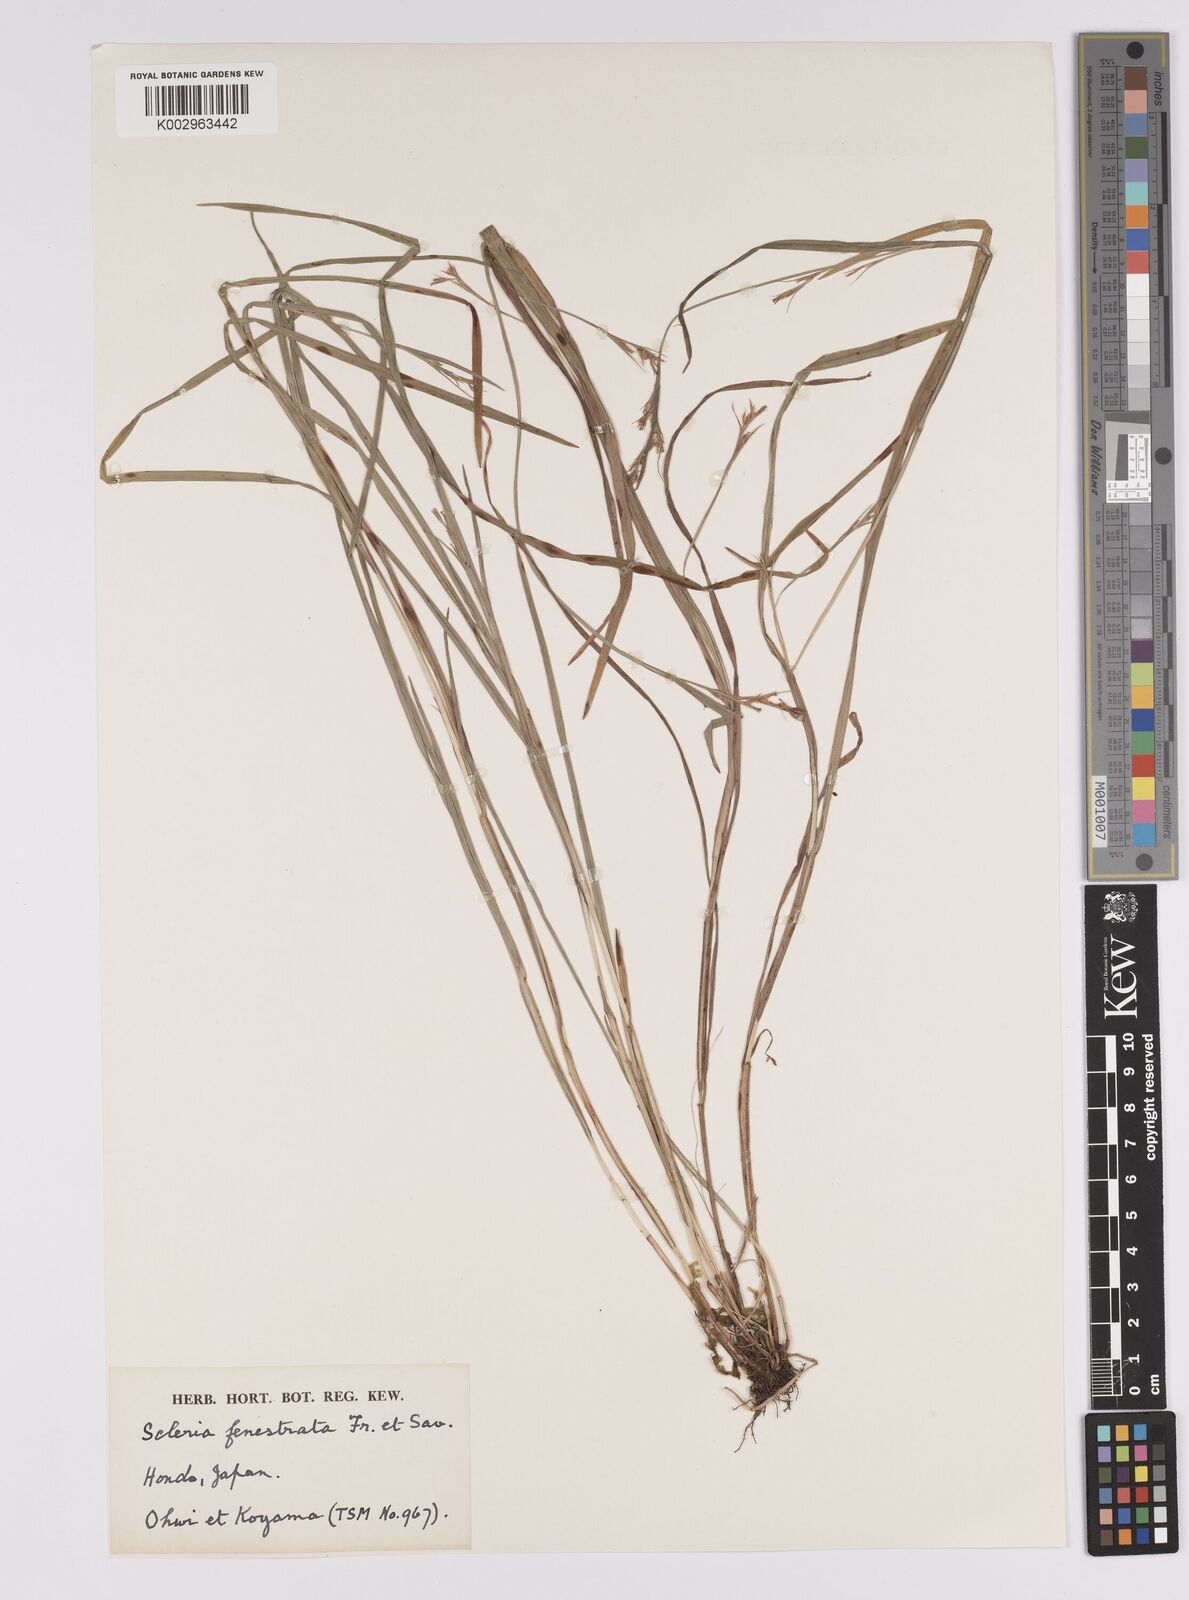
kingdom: Plantae
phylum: Tracheophyta
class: Liliopsida
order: Poales
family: Cyperaceae
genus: Scleria
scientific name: Scleria parvula
